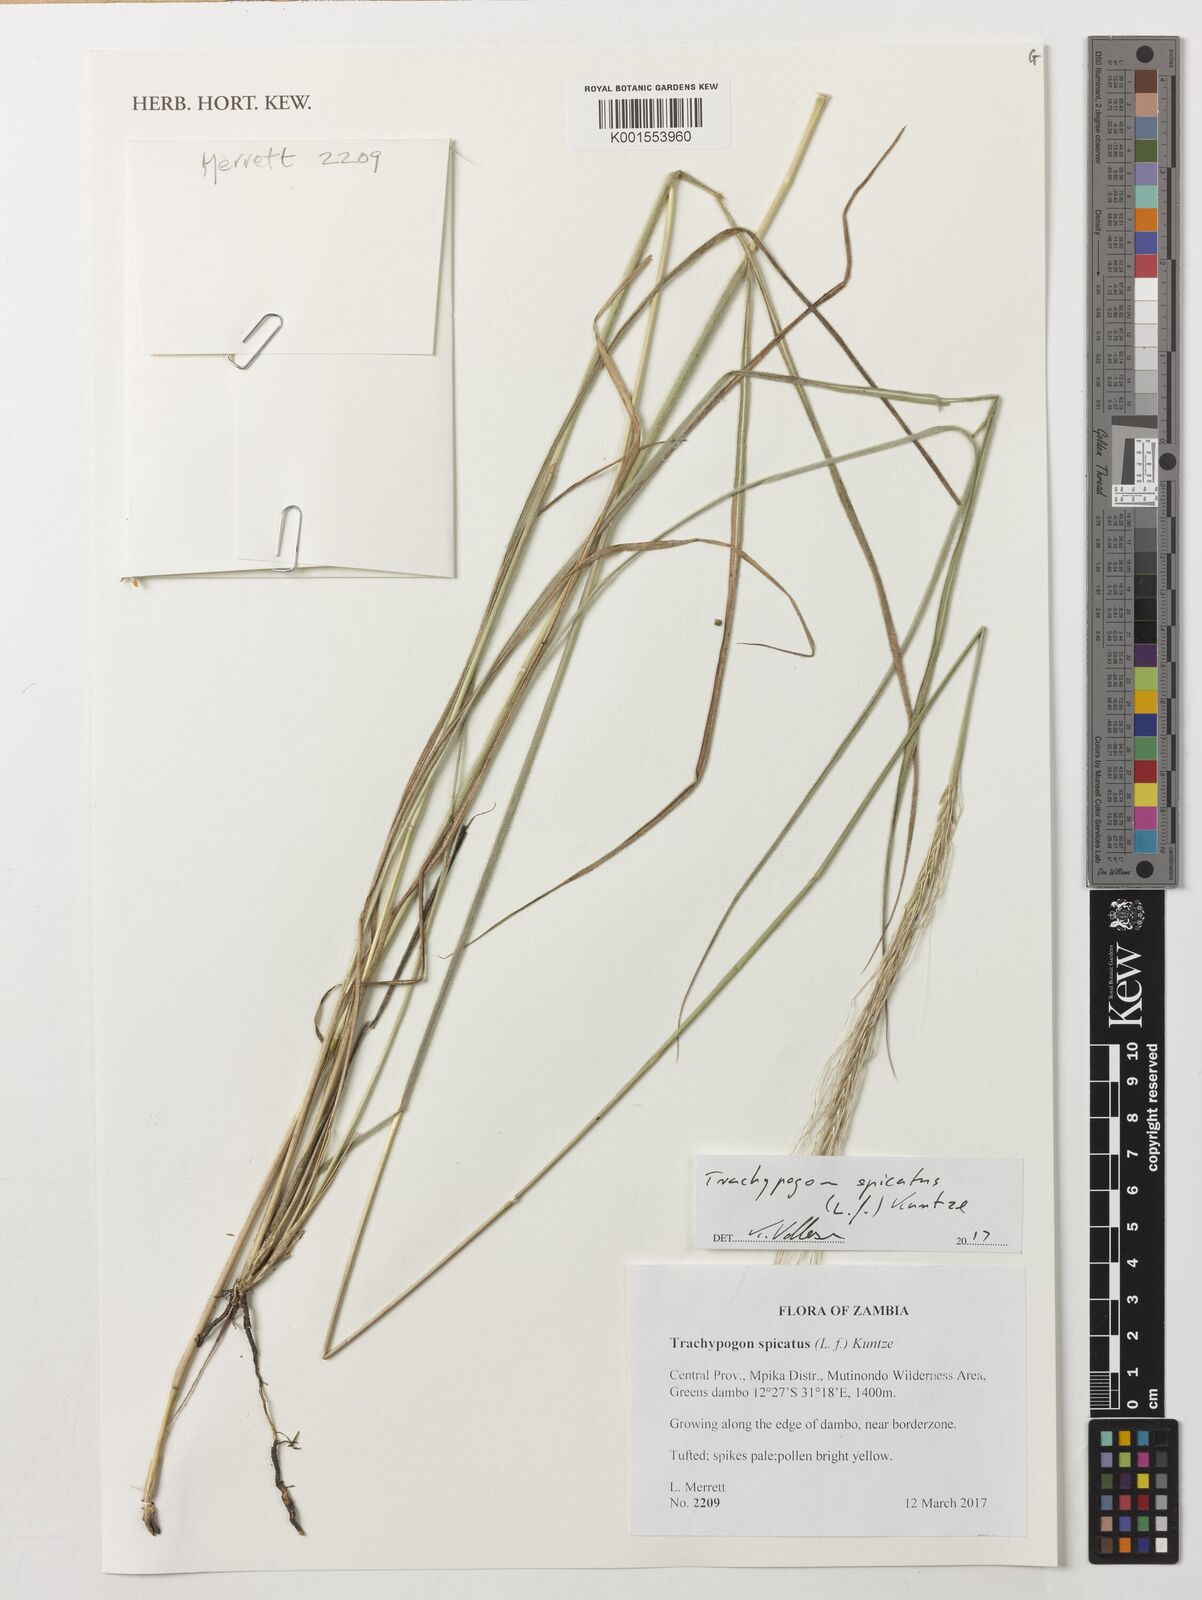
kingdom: Plantae
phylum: Tracheophyta
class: Liliopsida
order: Poales
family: Poaceae
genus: Trachypogon
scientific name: Trachypogon spicatus
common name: Crinkle-awn
